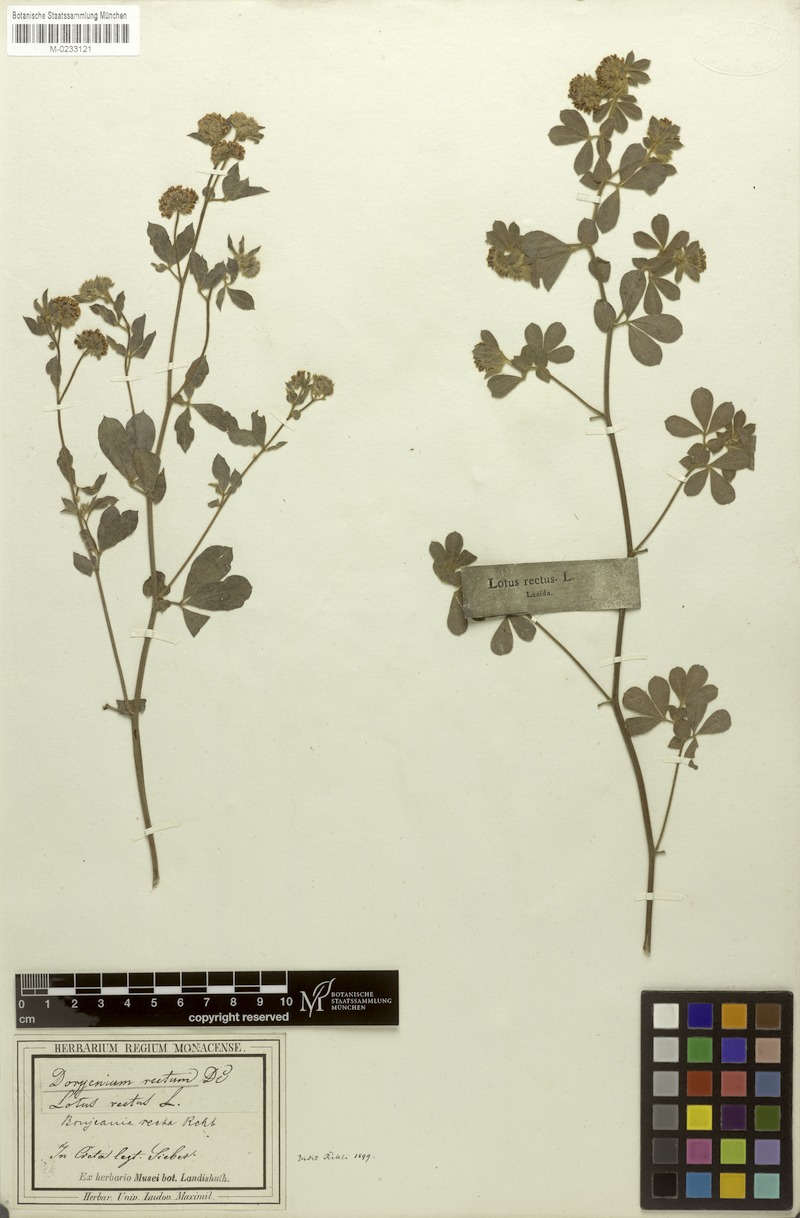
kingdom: Plantae
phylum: Tracheophyta
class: Magnoliopsida
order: Fabales
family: Fabaceae
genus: Lotus
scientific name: Lotus rectus
